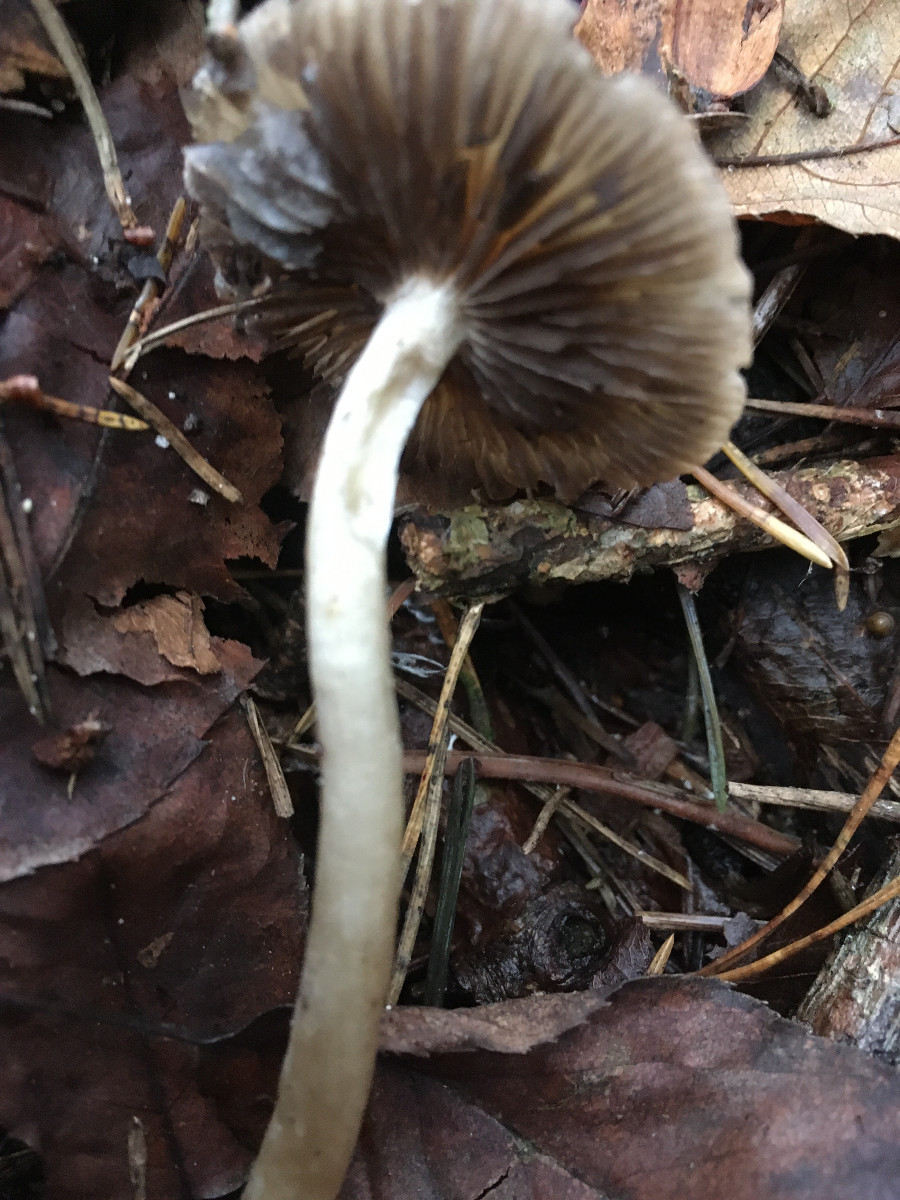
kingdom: Fungi
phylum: Basidiomycota
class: Agaricomycetes
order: Agaricales
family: Psathyrellaceae
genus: Psathyrella
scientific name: Psathyrella
